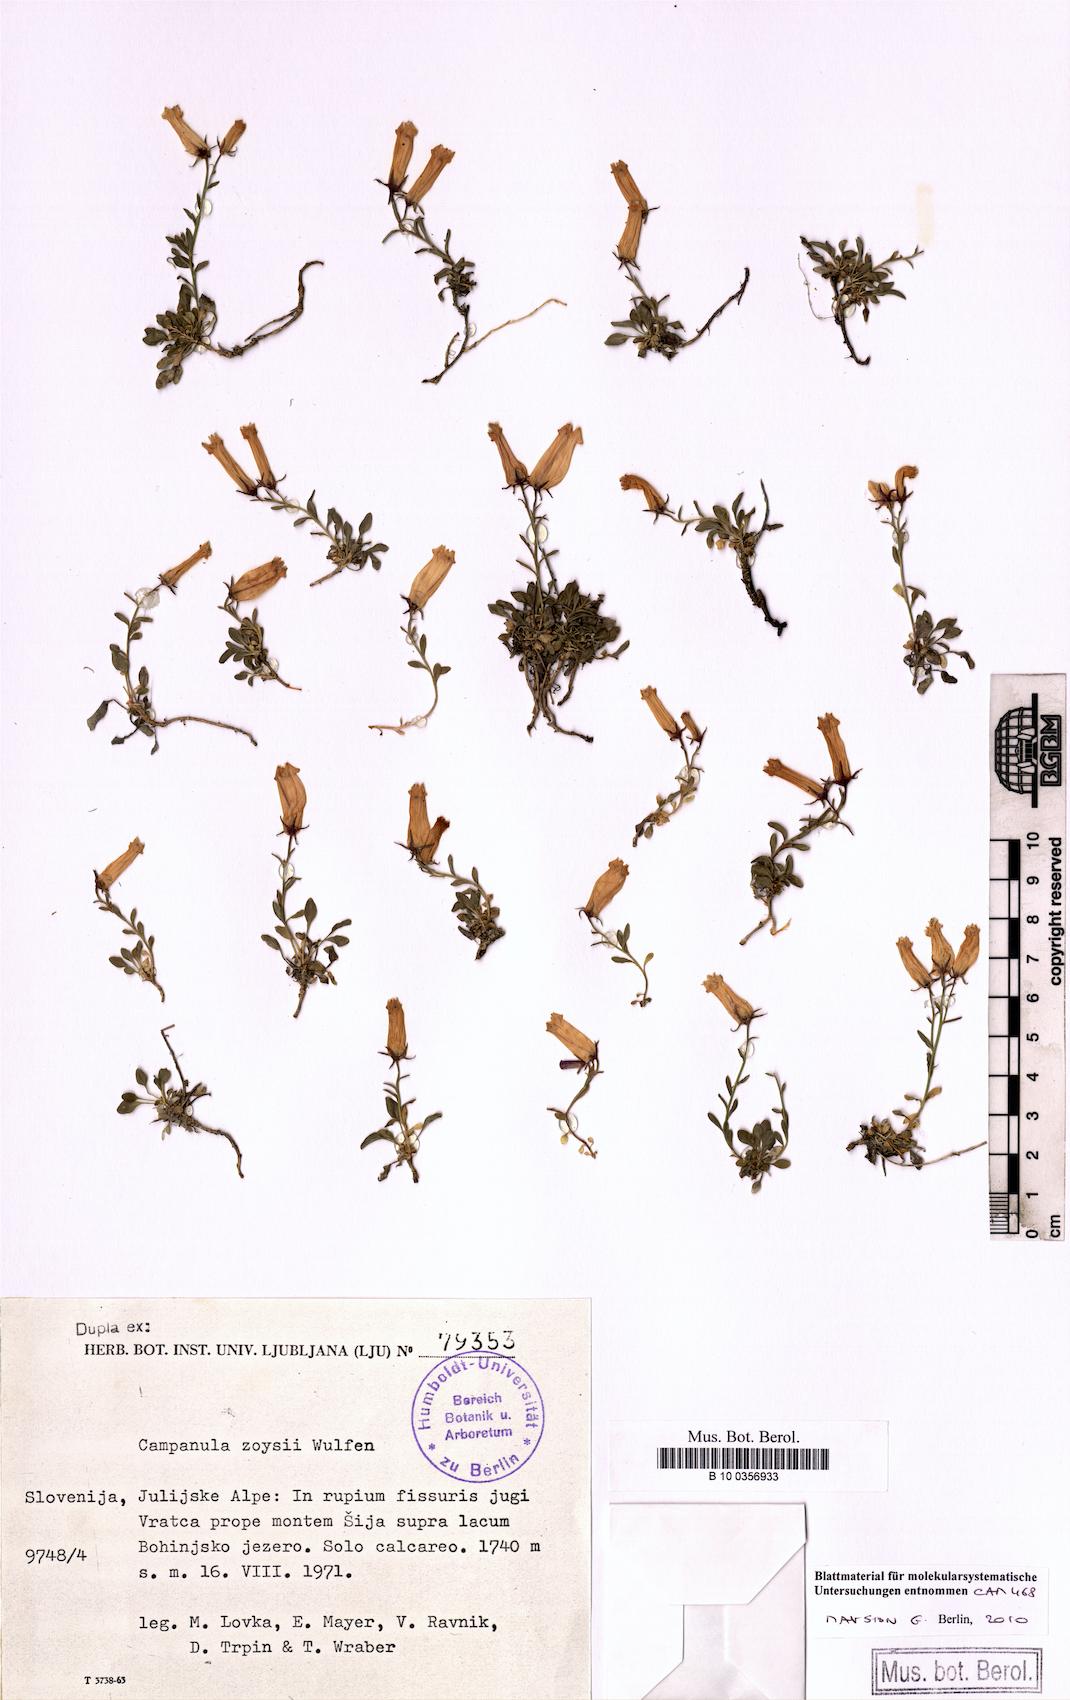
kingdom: Plantae
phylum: Tracheophyta
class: Magnoliopsida
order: Asterales
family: Campanulaceae
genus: Favratia
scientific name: Favratia zoysii
